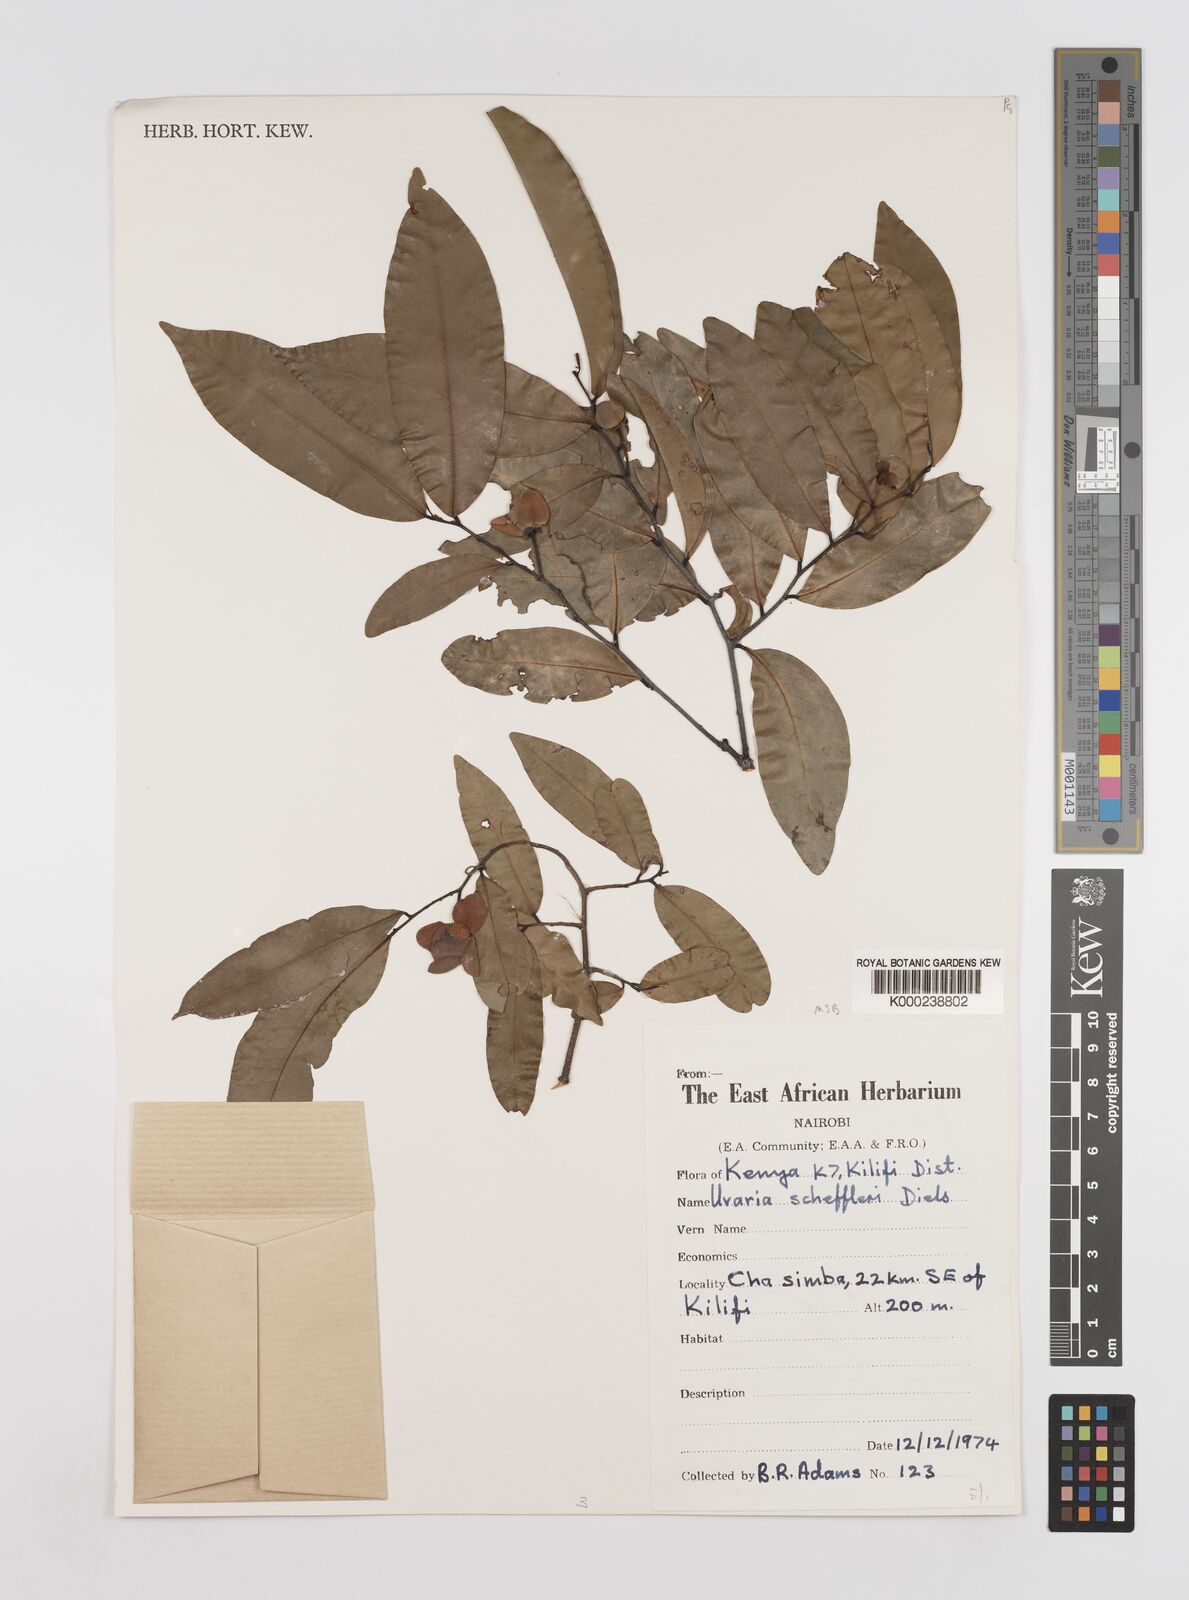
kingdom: Plantae
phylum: Tracheophyta
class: Magnoliopsida
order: Magnoliales
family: Annonaceae
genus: Uvaria
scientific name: Uvaria scheffleri
